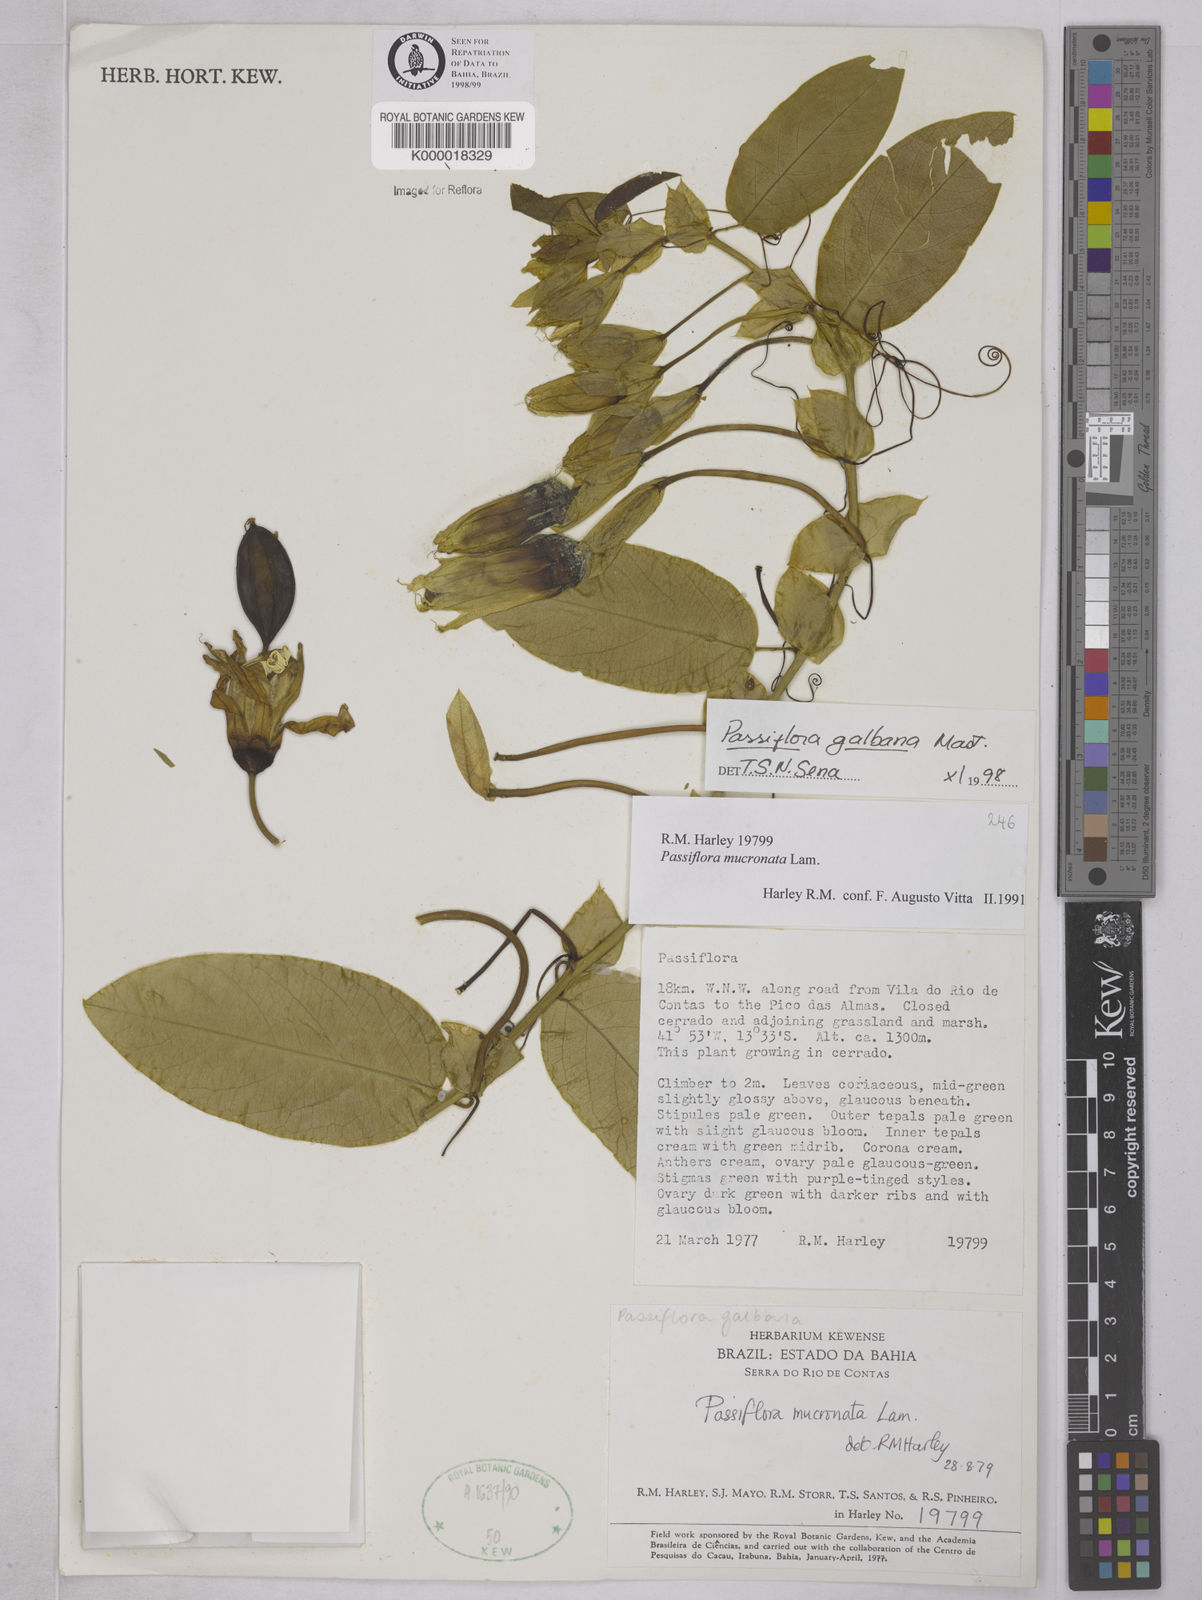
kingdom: Plantae
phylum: Tracheophyta
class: Magnoliopsida
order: Malpighiales
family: Passifloraceae
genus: Passiflora
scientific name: Passiflora silvestris
